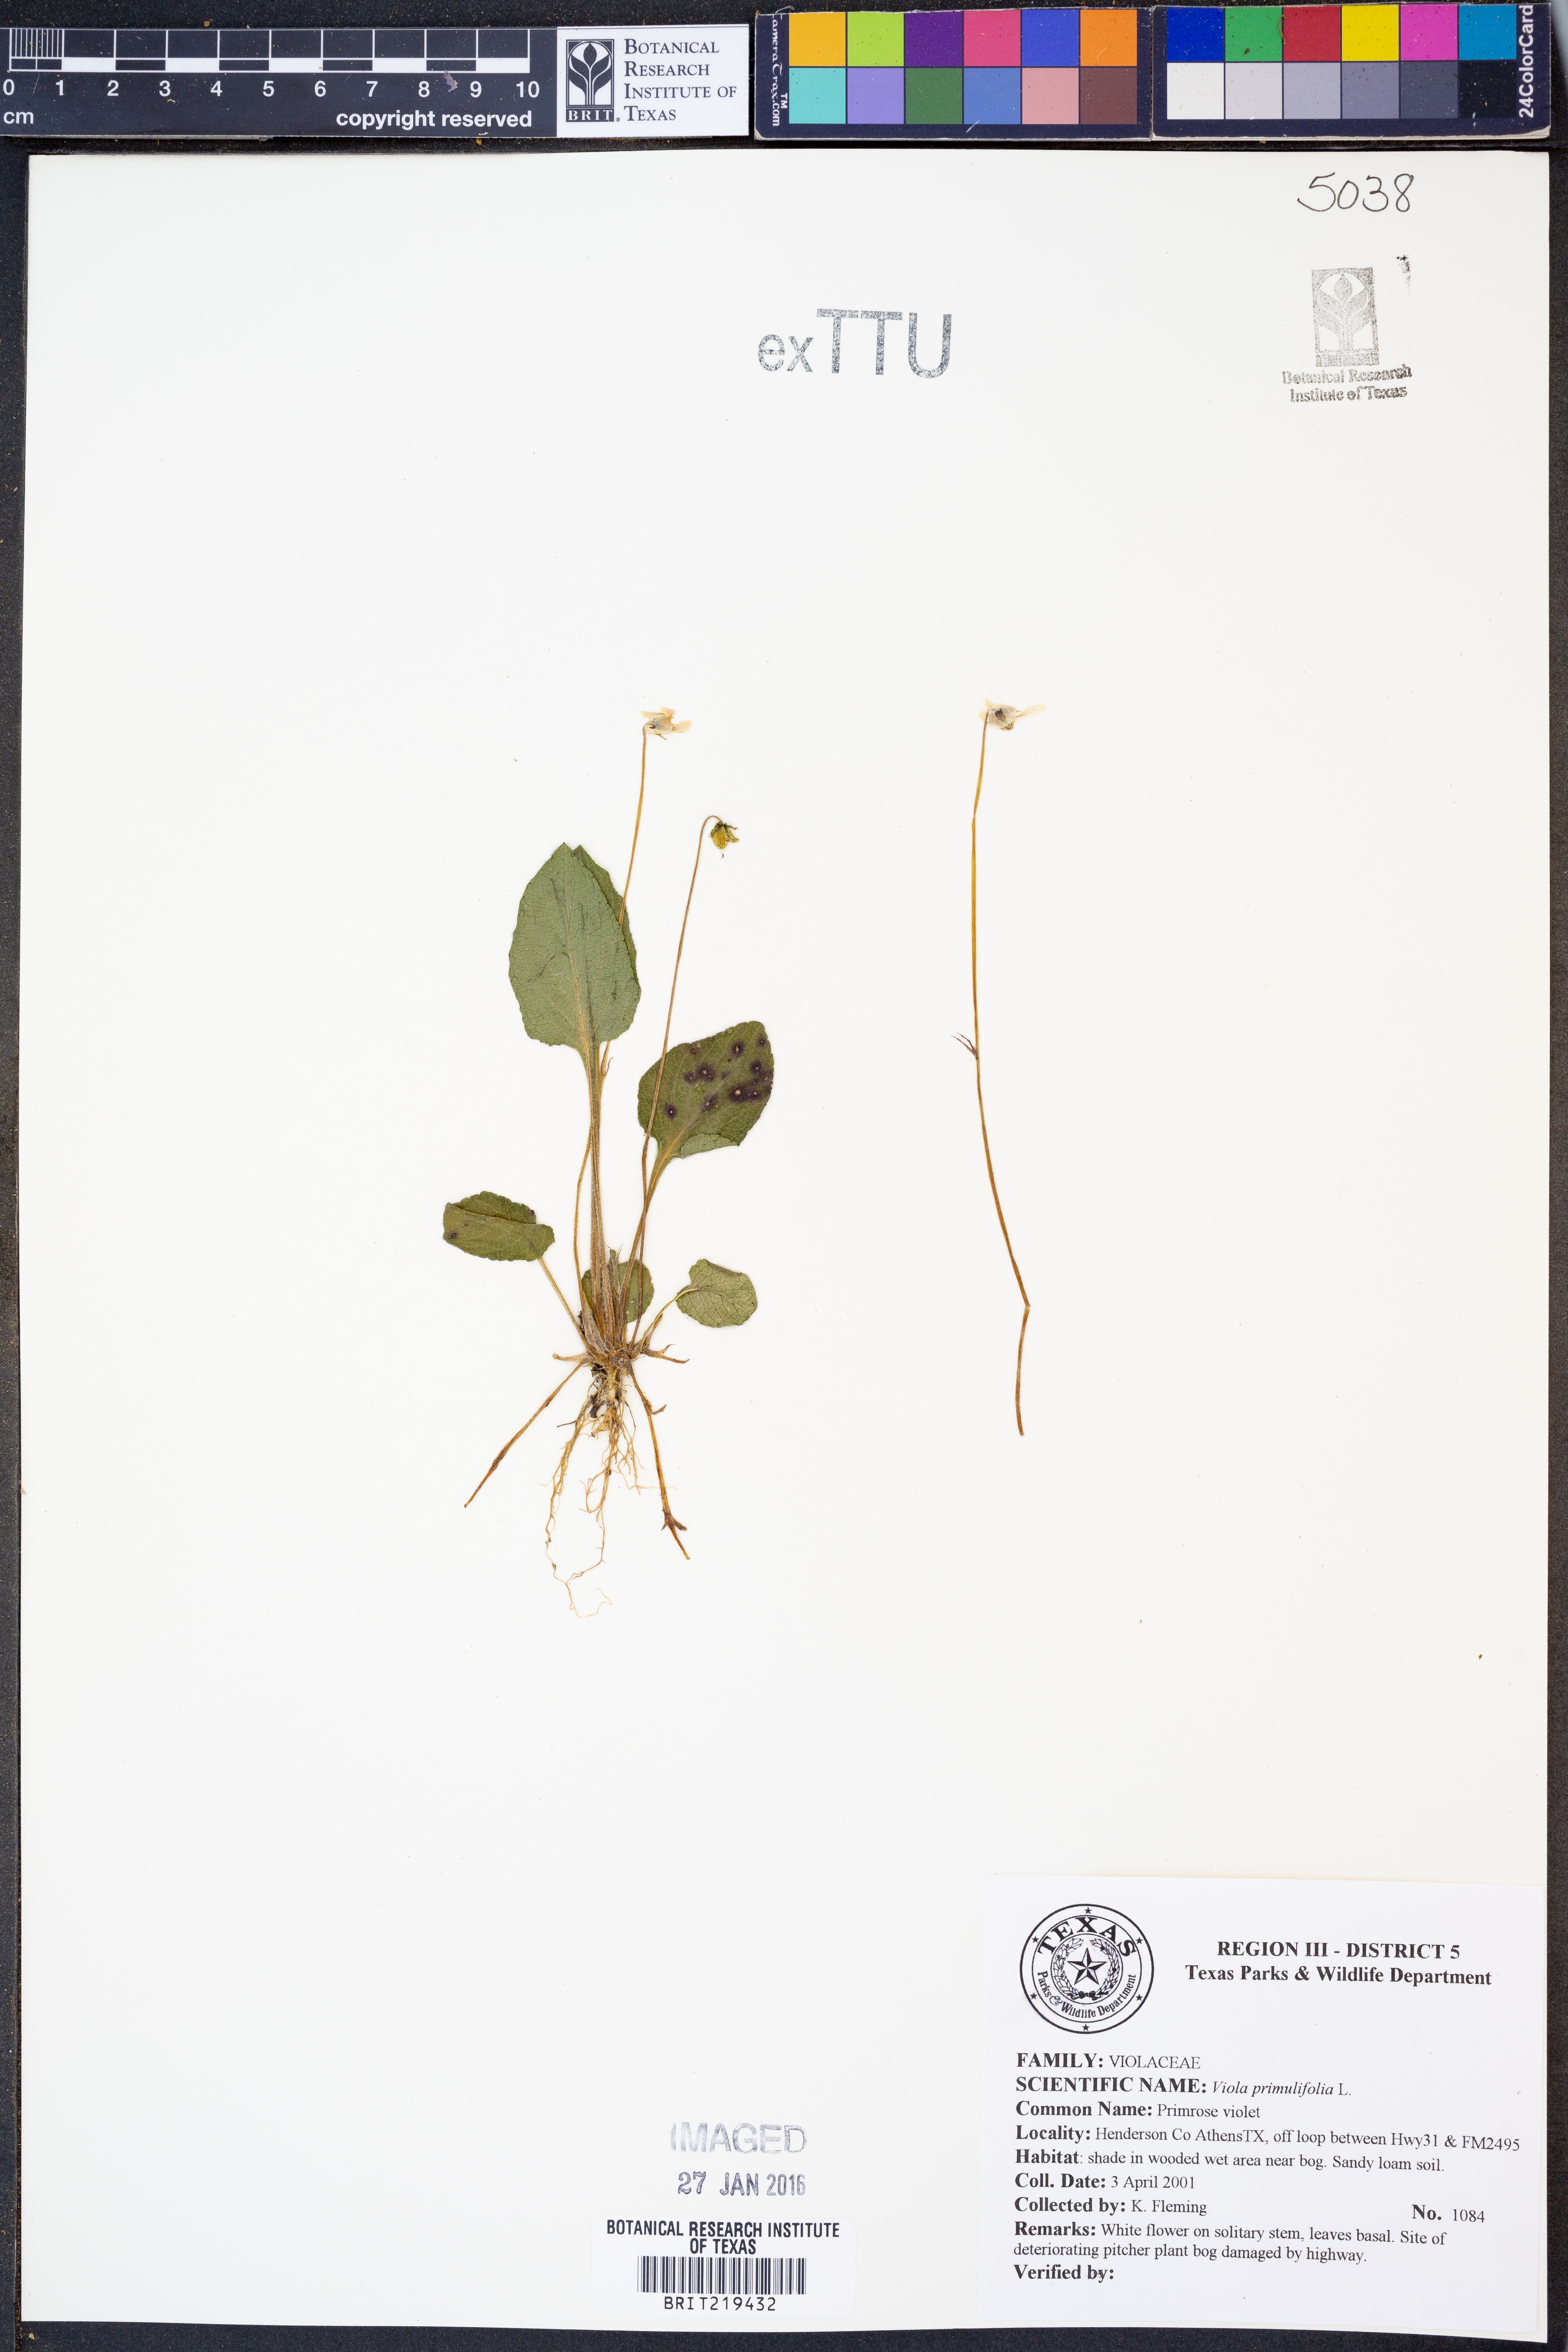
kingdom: Plantae
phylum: Tracheophyta
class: Magnoliopsida
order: Malpighiales
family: Violaceae
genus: Viola
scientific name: Viola primulifolia
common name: Primrose-leaf violet
